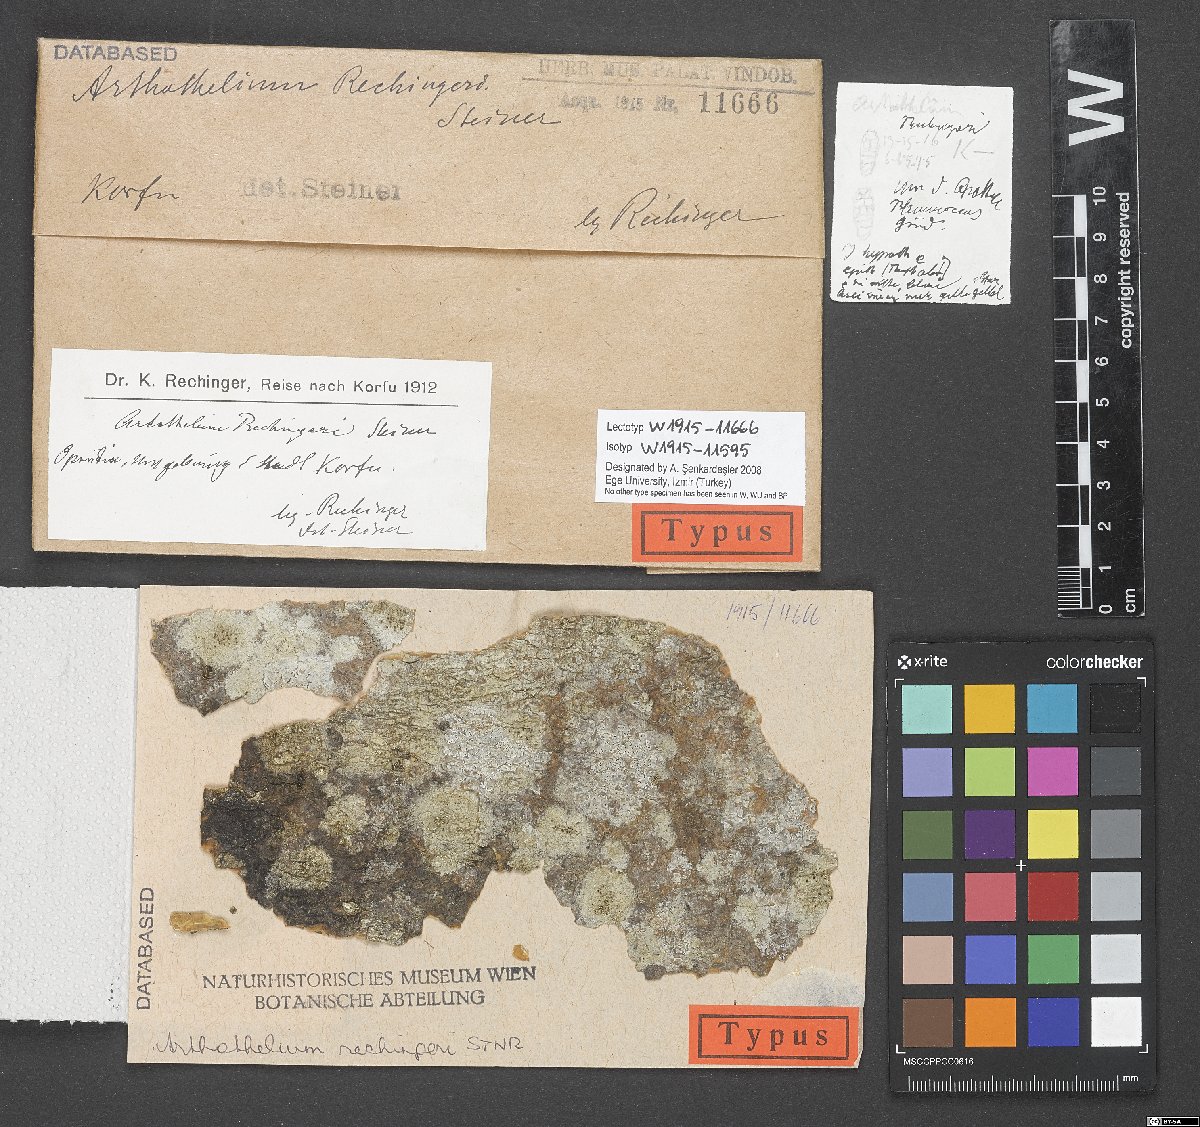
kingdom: Fungi
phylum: Ascomycota
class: Arthoniomycetes
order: Arthoniales
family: Arthoniaceae
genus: Arthothelium
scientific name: Arthothelium
